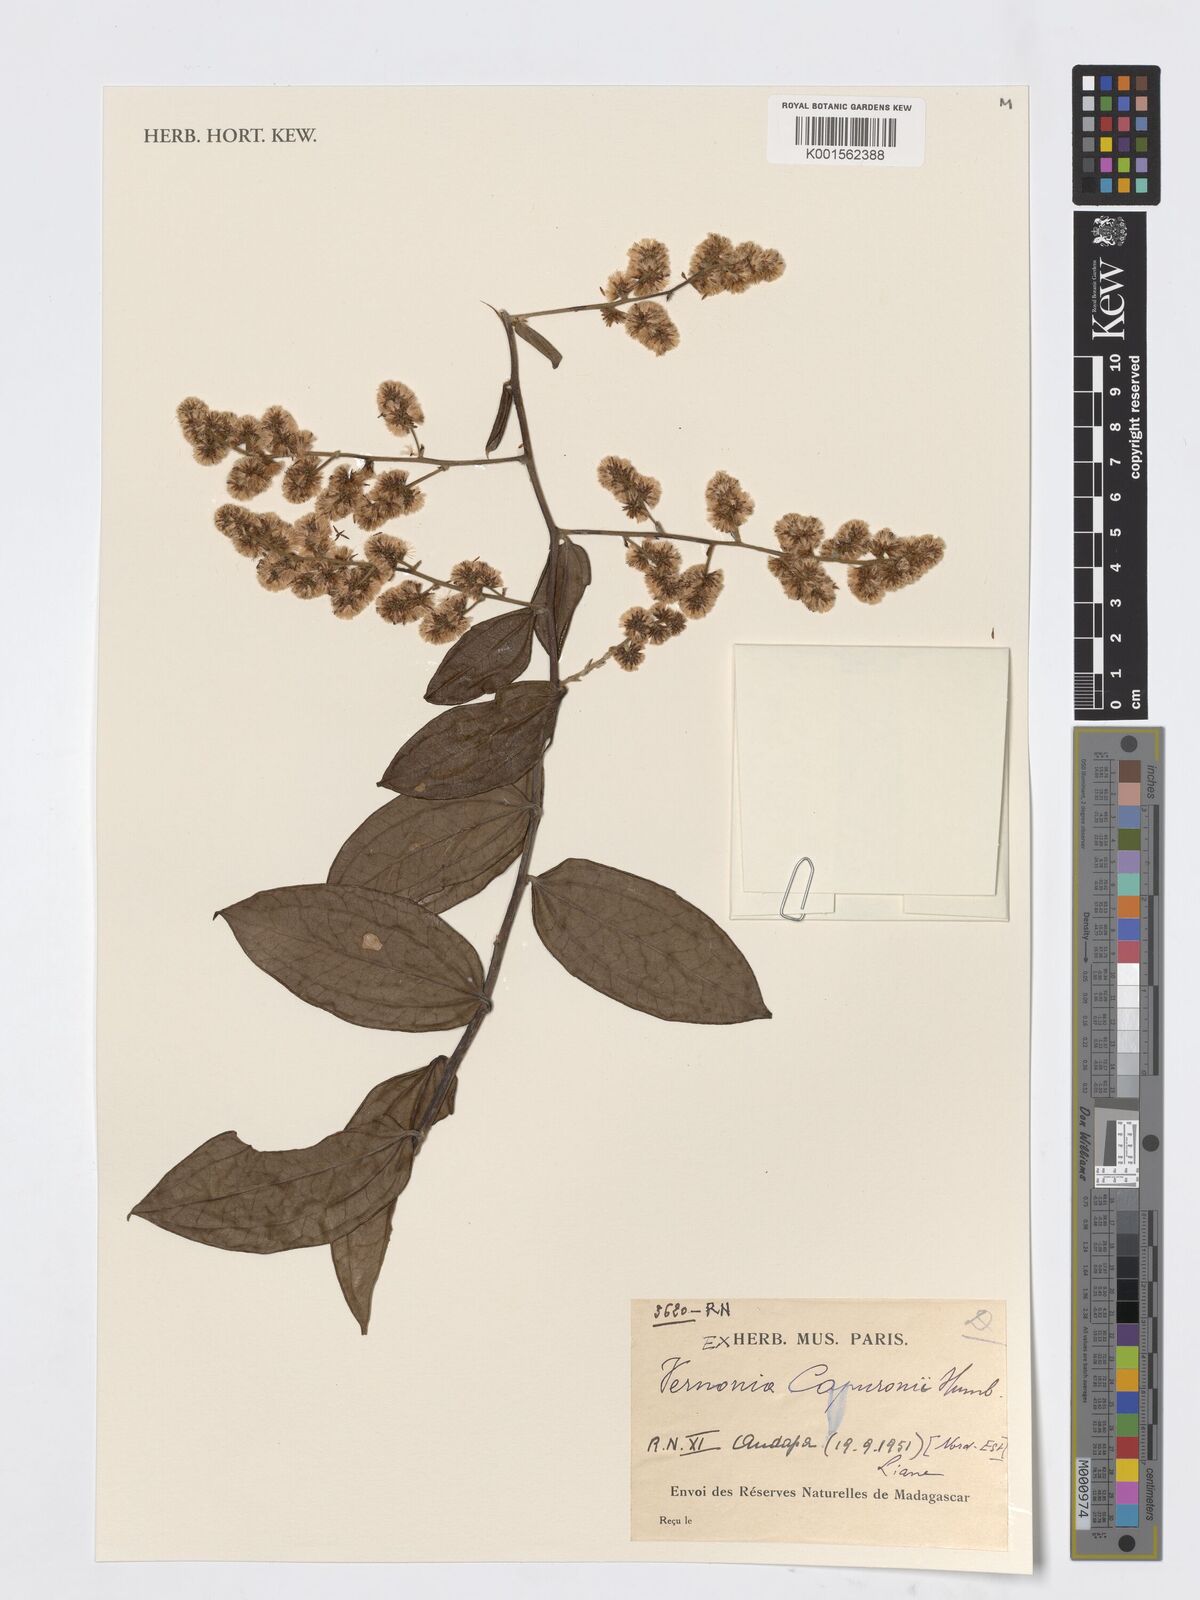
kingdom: Plantae
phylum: Tracheophyta
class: Magnoliopsida
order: Asterales
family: Asteraceae
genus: Distephanus
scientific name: Distephanus capuronii
